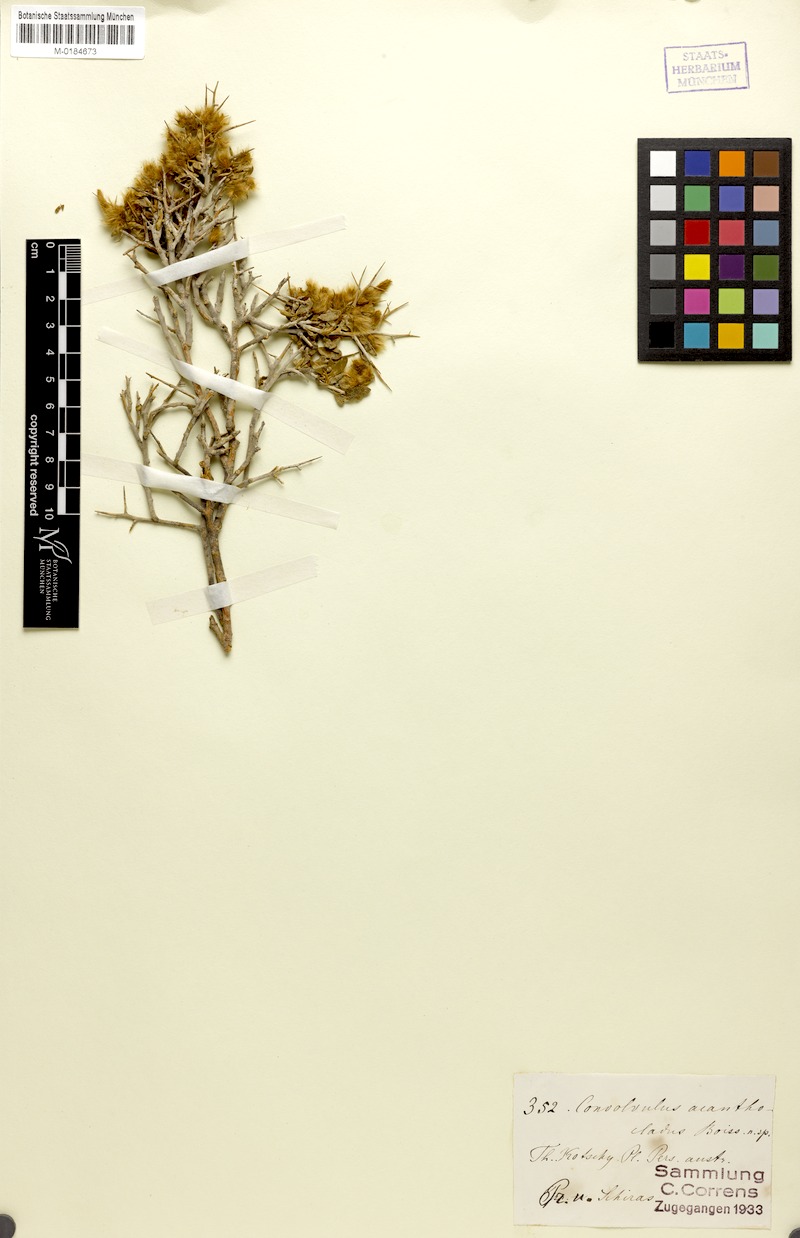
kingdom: Plantae
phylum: Tracheophyta
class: Magnoliopsida
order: Solanales
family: Convolvulaceae
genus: Convolvulus
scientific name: Convolvulus acanthocladus
